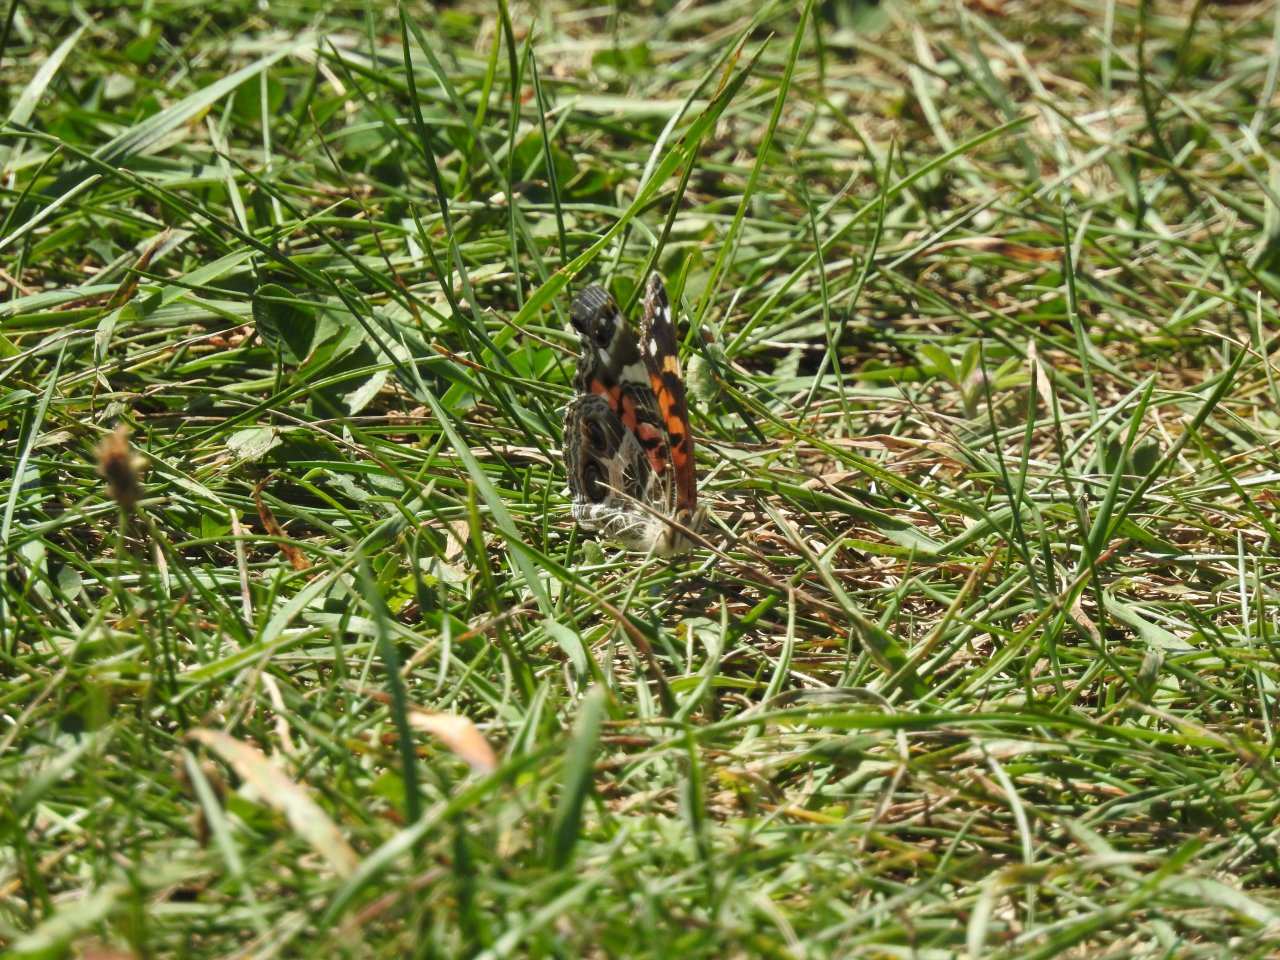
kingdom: Animalia
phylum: Arthropoda
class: Insecta
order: Lepidoptera
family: Nymphalidae
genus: Vanessa
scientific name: Vanessa virginiensis
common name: American Lady
